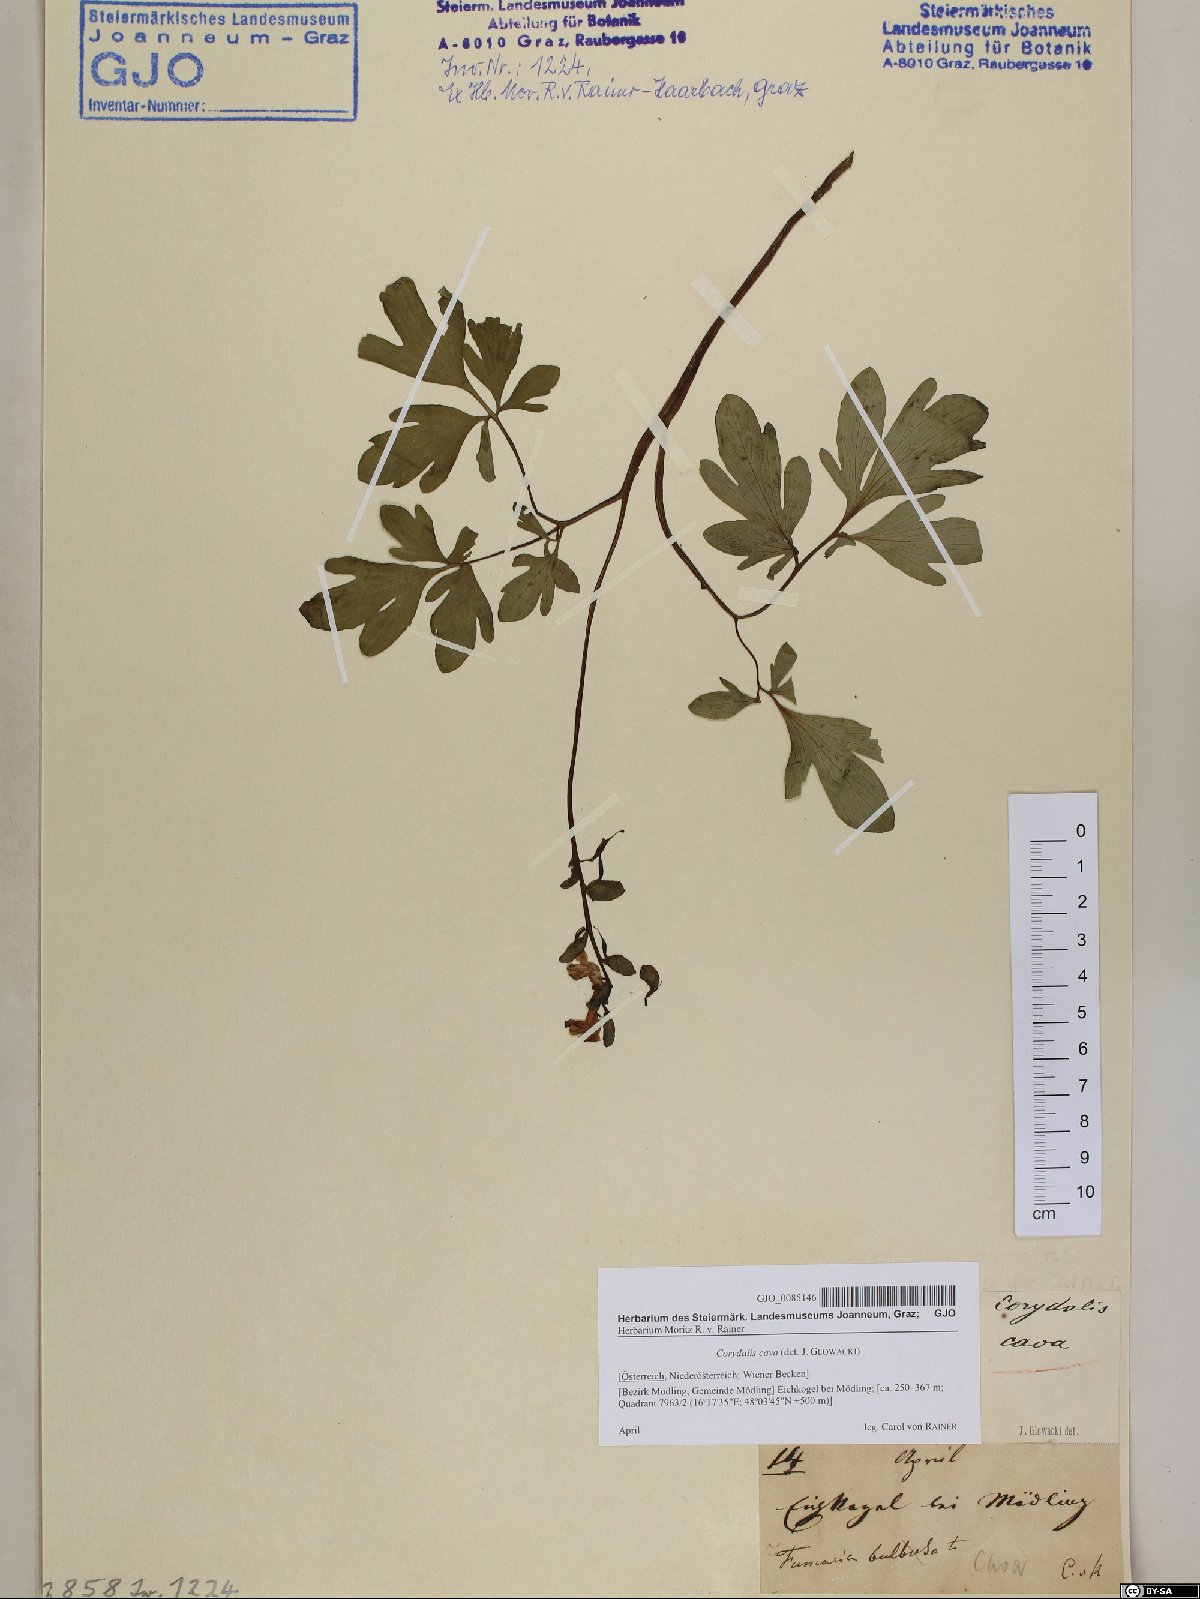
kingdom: Plantae
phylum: Tracheophyta
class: Magnoliopsida
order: Ranunculales
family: Papaveraceae
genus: Corydalis
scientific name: Corydalis cava
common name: Hollowroot
